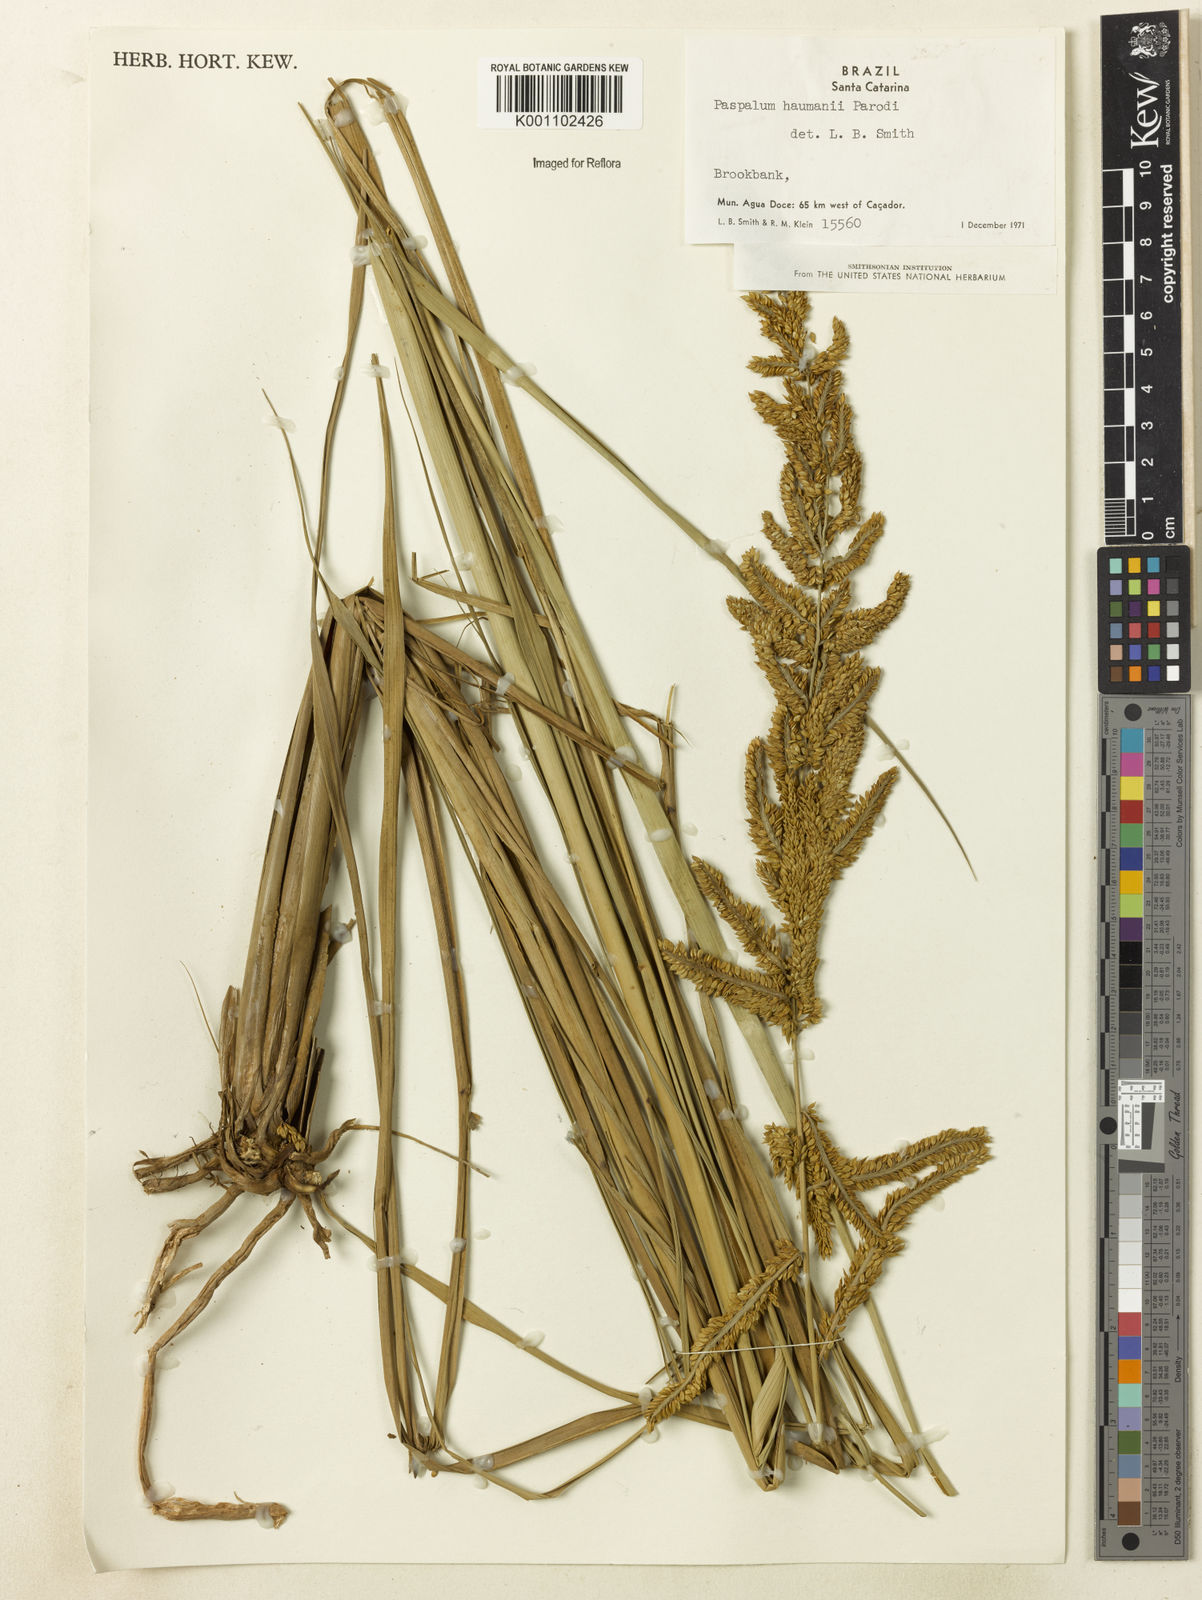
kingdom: Plantae
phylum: Tracheophyta
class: Liliopsida
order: Poales
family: Poaceae
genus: Paspalum
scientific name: Paspalum exaltatum
